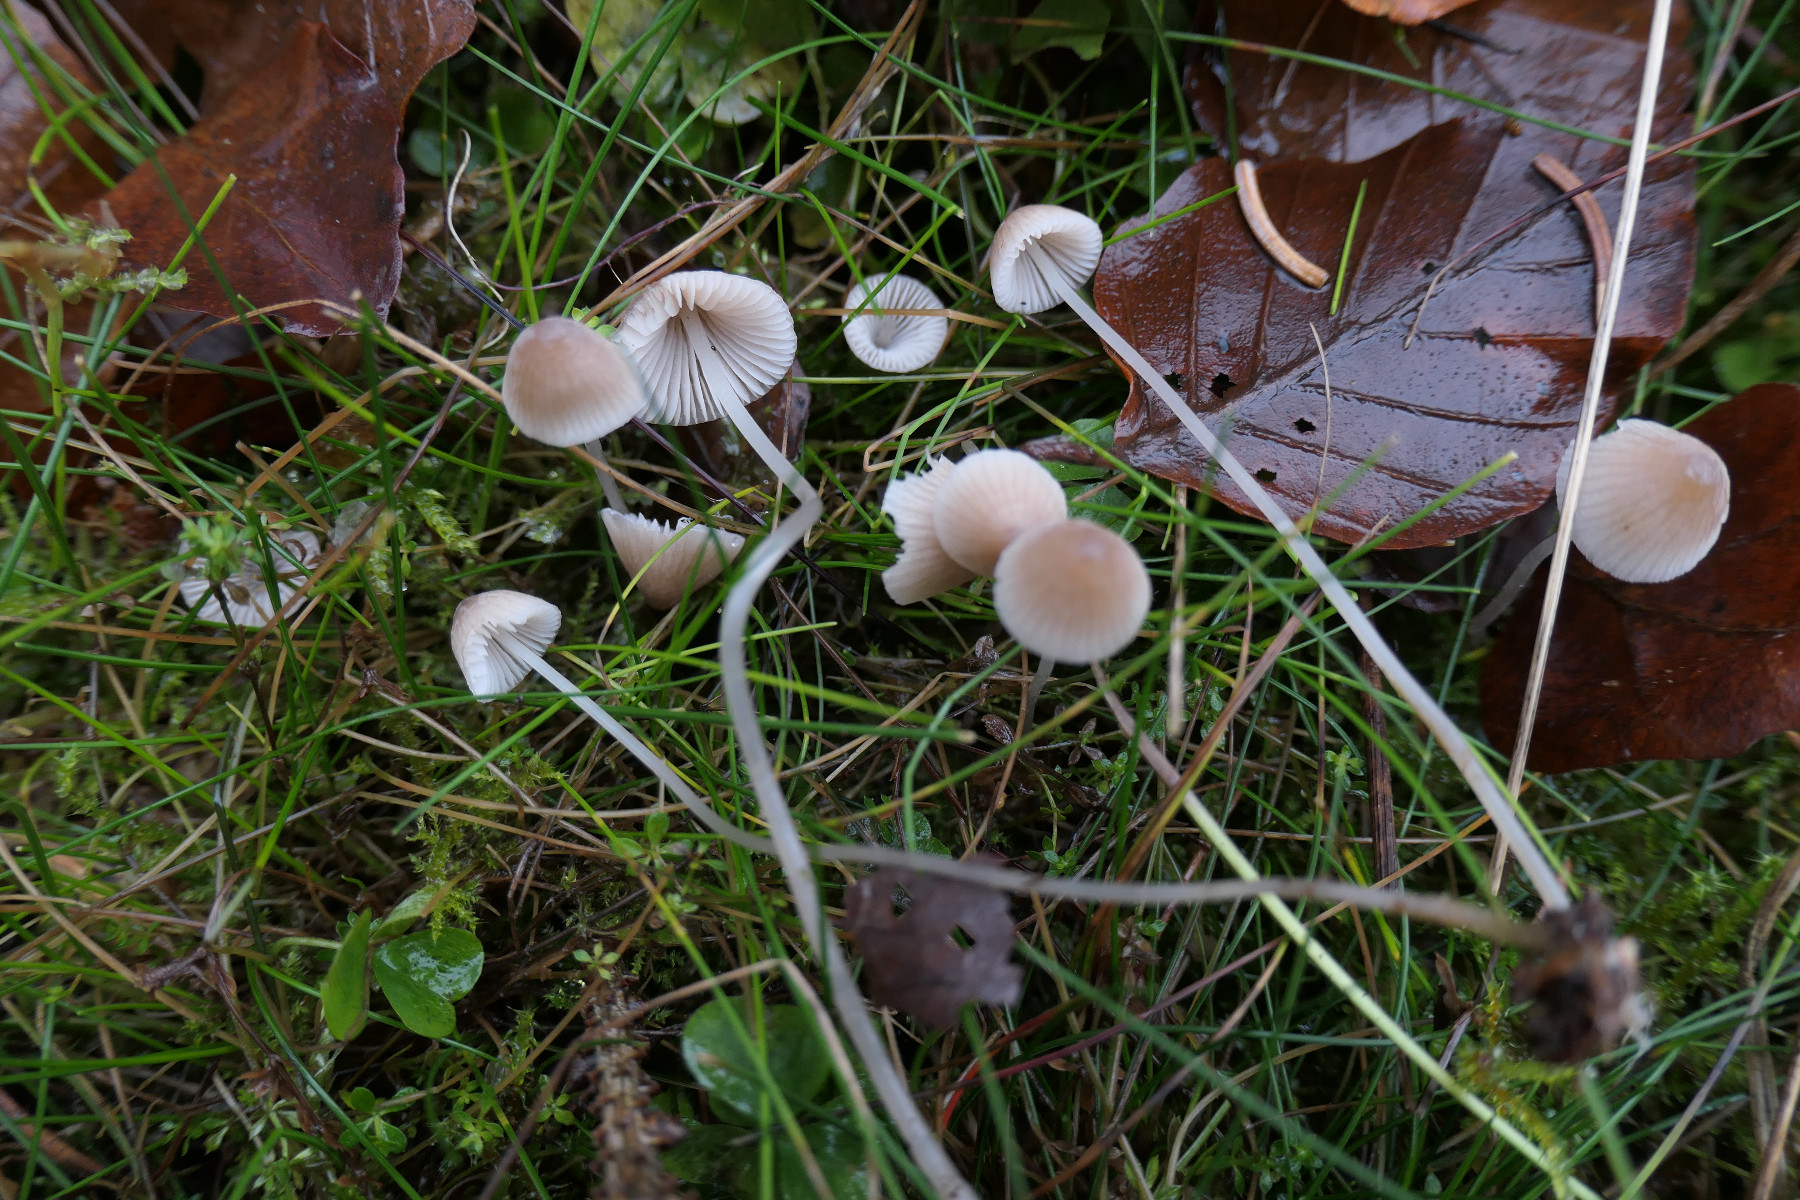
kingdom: Fungi
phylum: Basidiomycota
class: Agaricomycetes
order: Agaricales
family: Mycenaceae
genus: Mycena
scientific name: Mycena metata
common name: rødlig huesvamp
